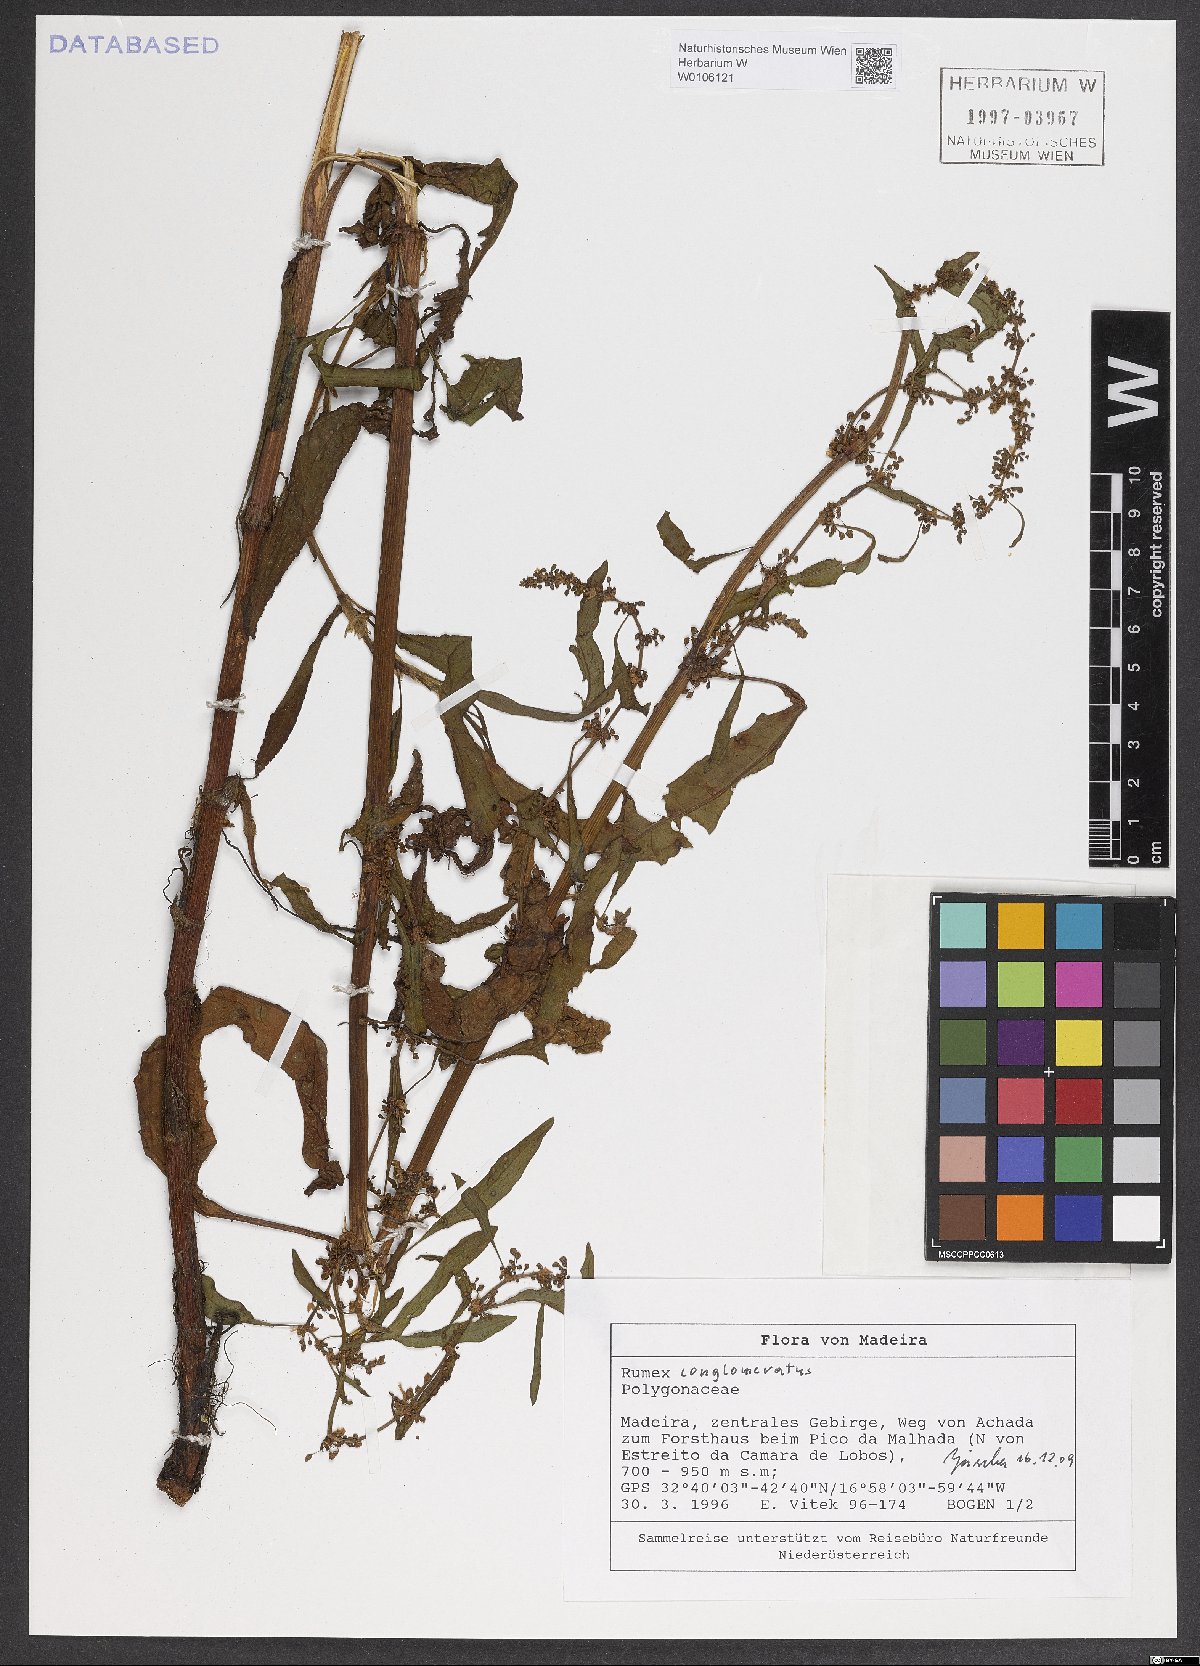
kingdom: Plantae
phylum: Tracheophyta
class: Magnoliopsida
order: Caryophyllales
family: Polygonaceae
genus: Rumex
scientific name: Rumex conglomeratus
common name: Clustered dock
